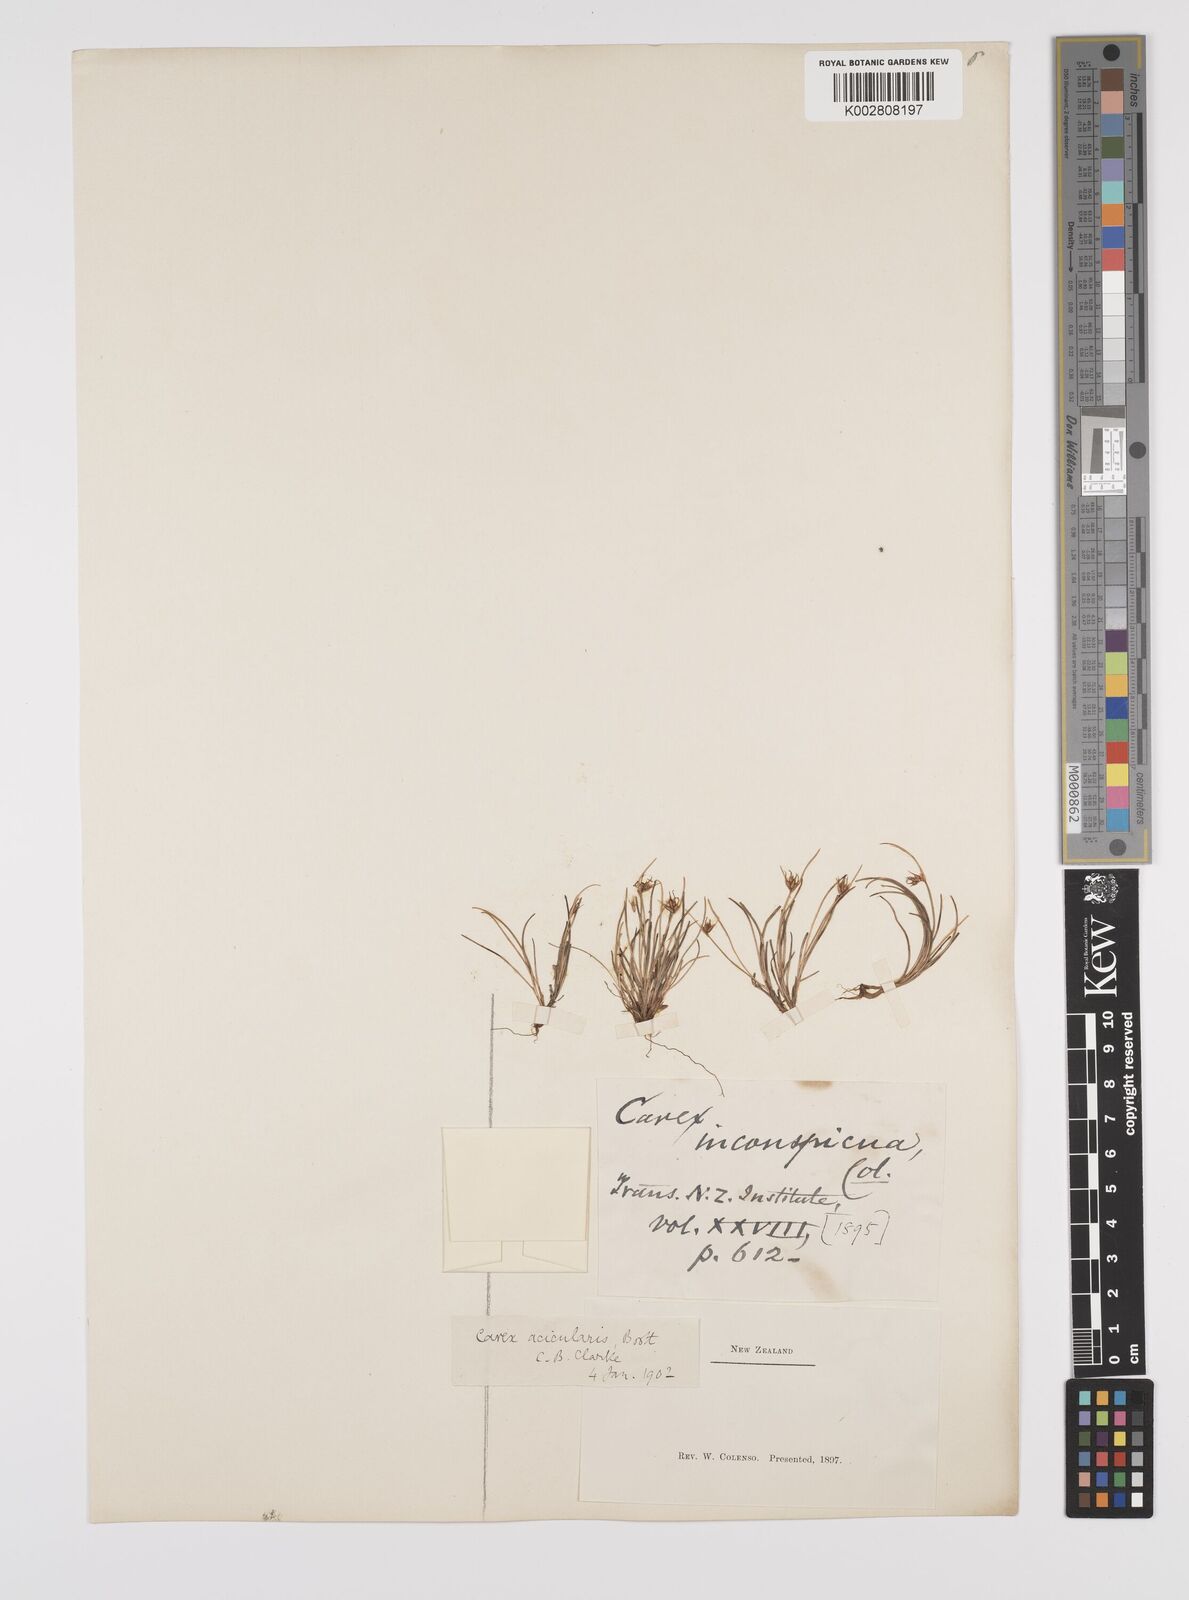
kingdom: Plantae
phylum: Tracheophyta
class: Liliopsida
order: Poales
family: Cyperaceae
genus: Carex
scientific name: Carex acicularis
